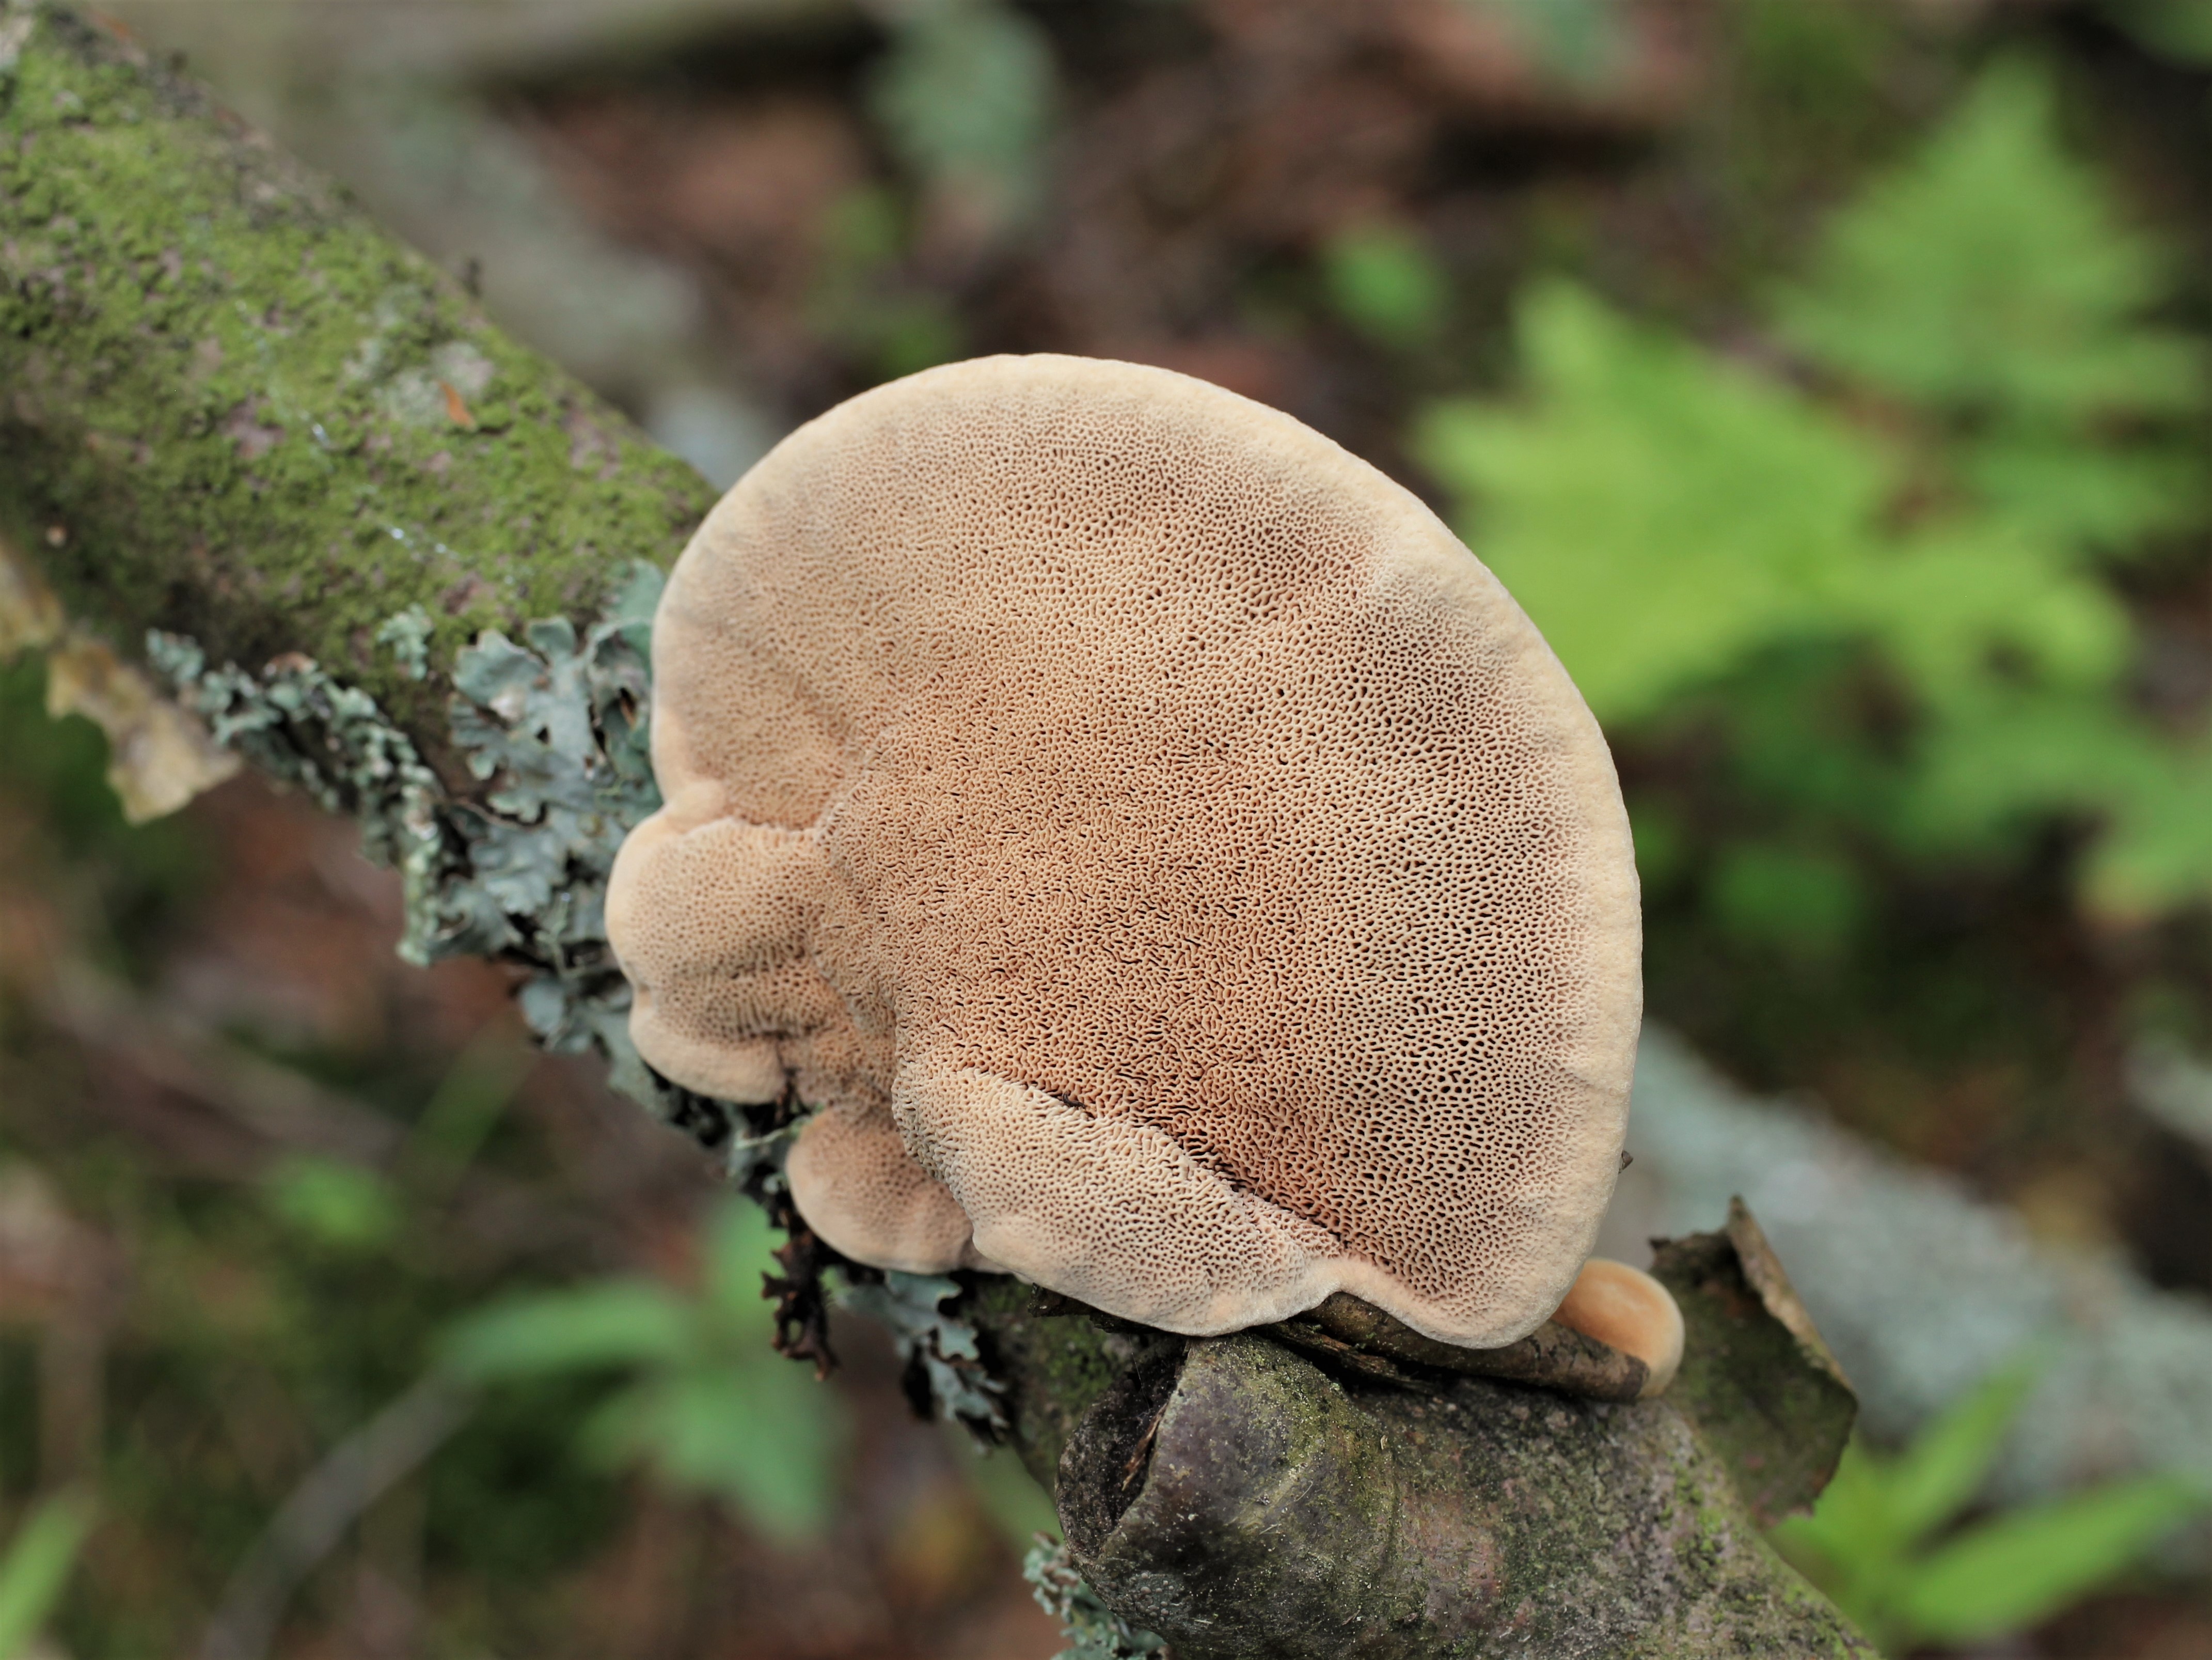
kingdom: Fungi
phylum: Basidiomycota
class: Agaricomycetes
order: Polyporales
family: Phanerochaetaceae
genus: Hapalopilus
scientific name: Hapalopilus rutilans
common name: Tender nesting polypore
